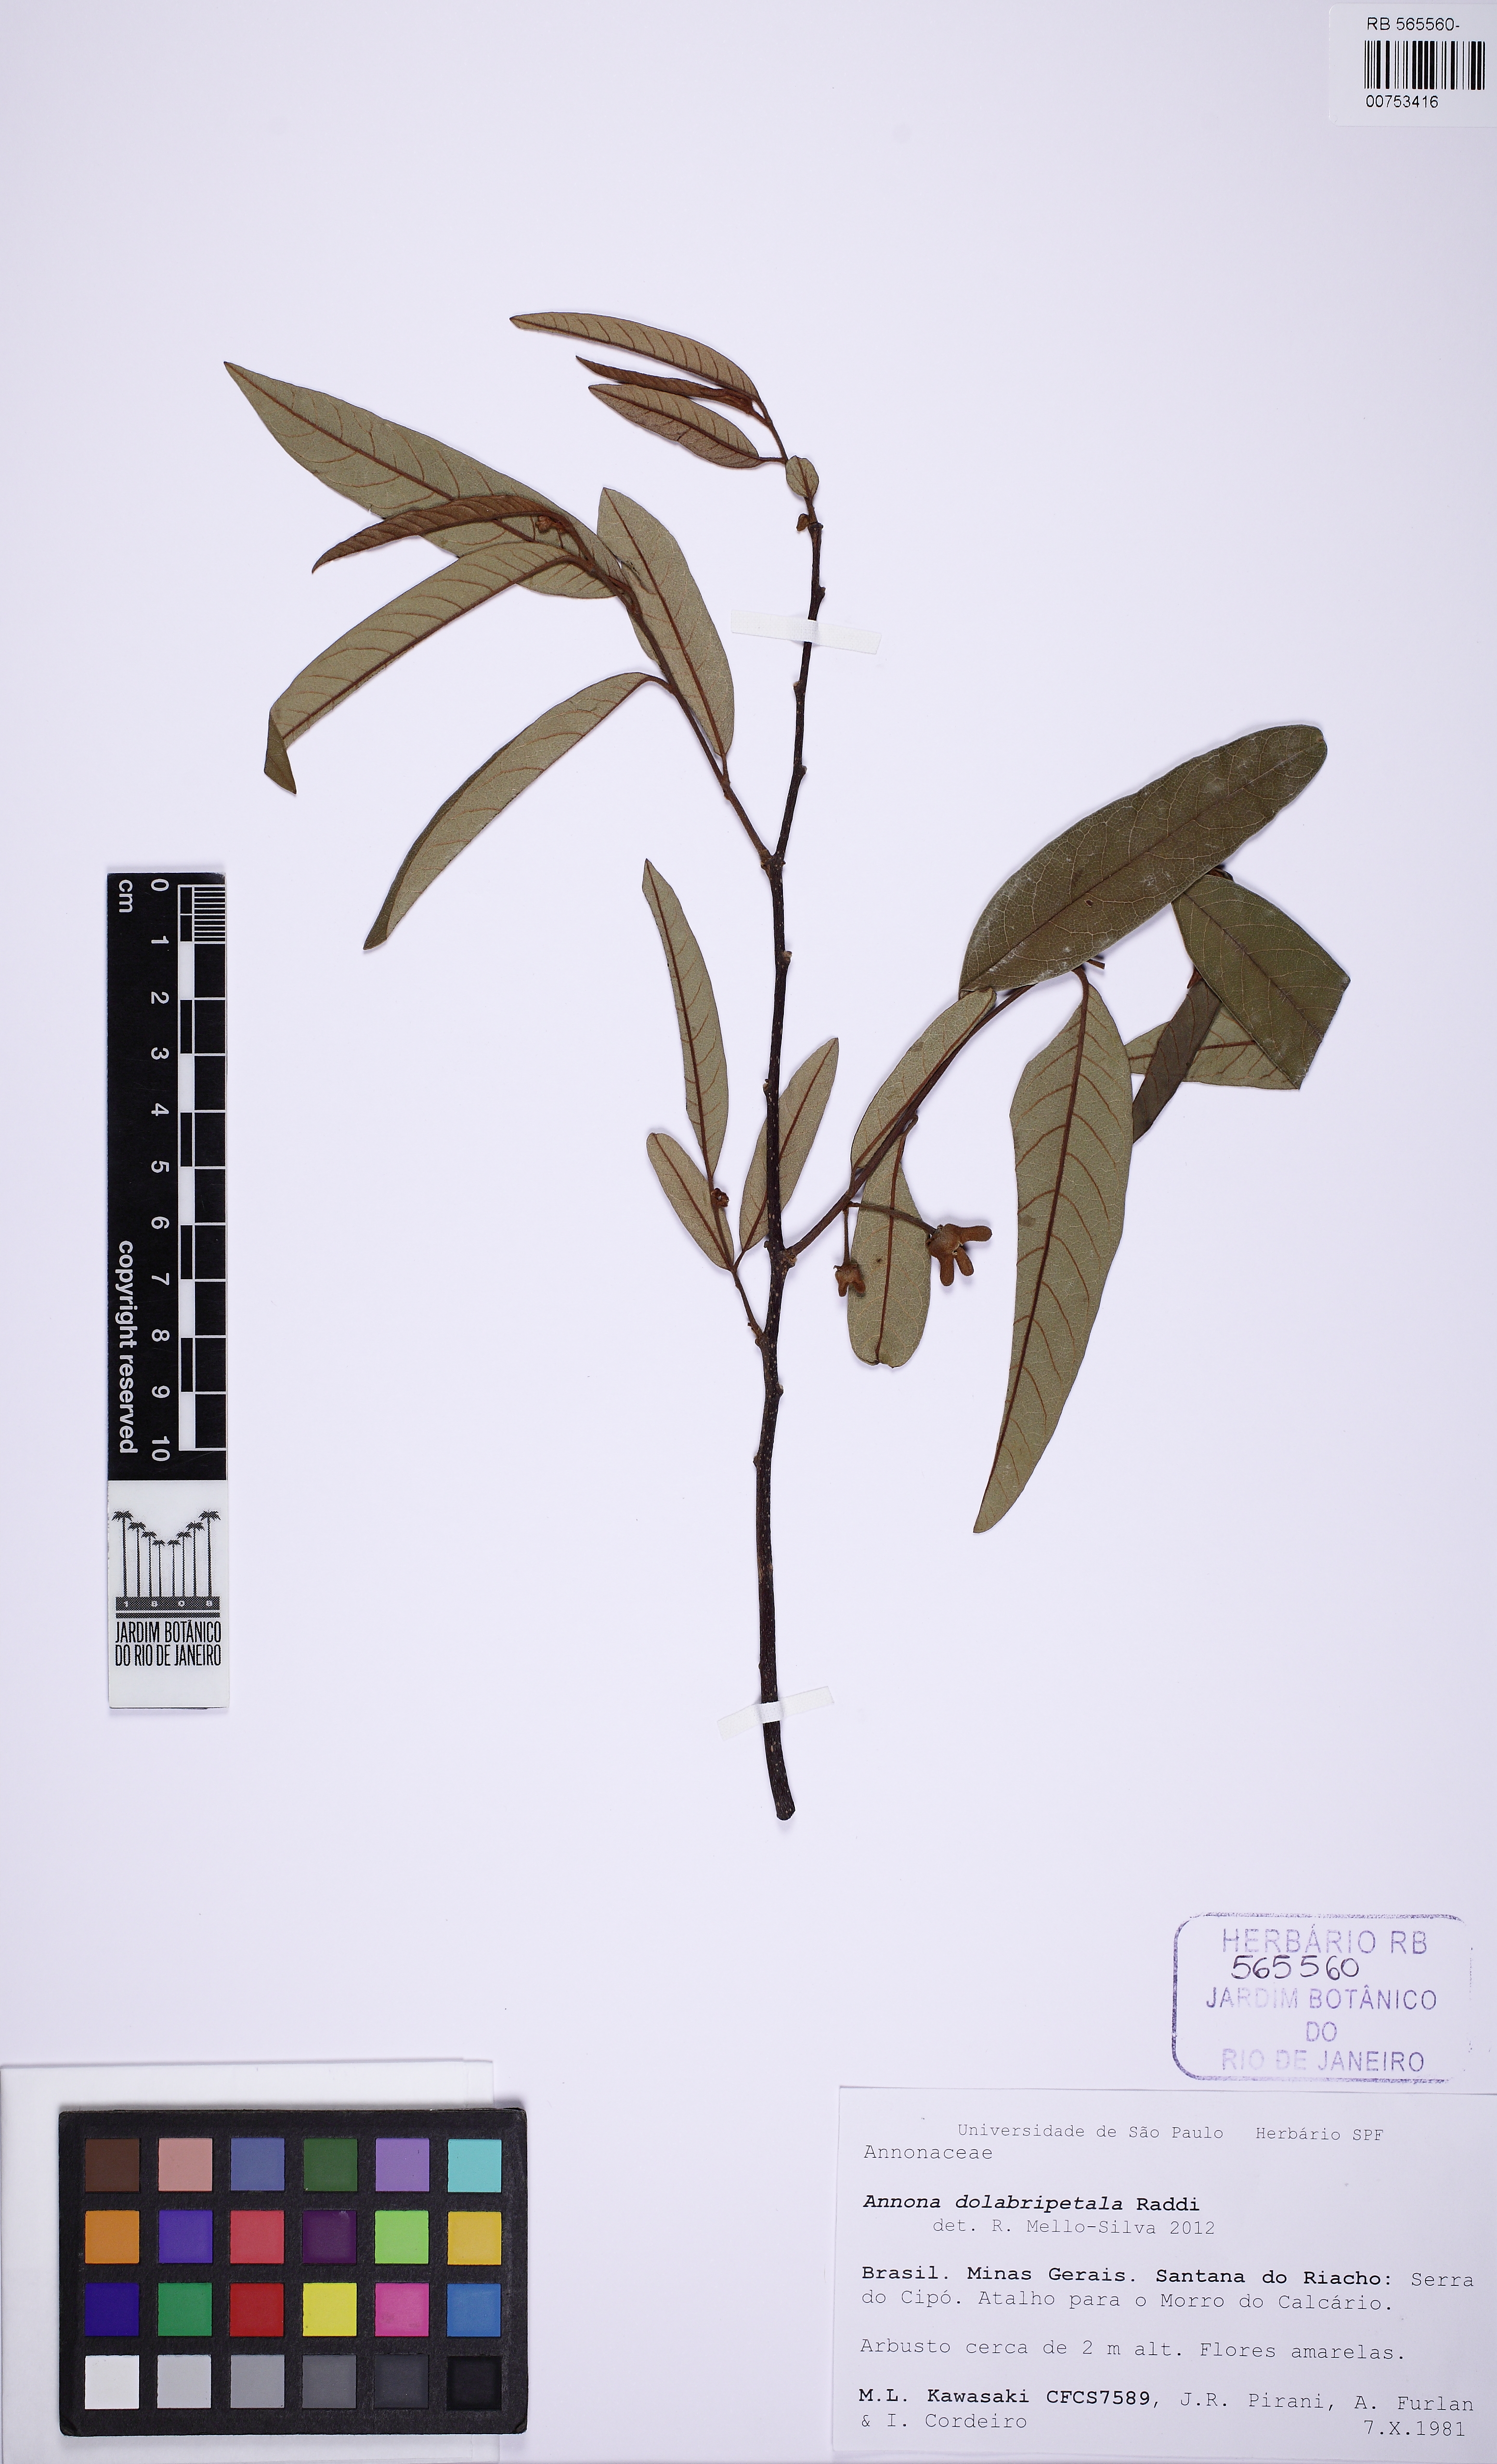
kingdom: Plantae
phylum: Tracheophyta
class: Magnoliopsida
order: Magnoliales
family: Annonaceae
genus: Annona
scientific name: Annona dolabripetala
